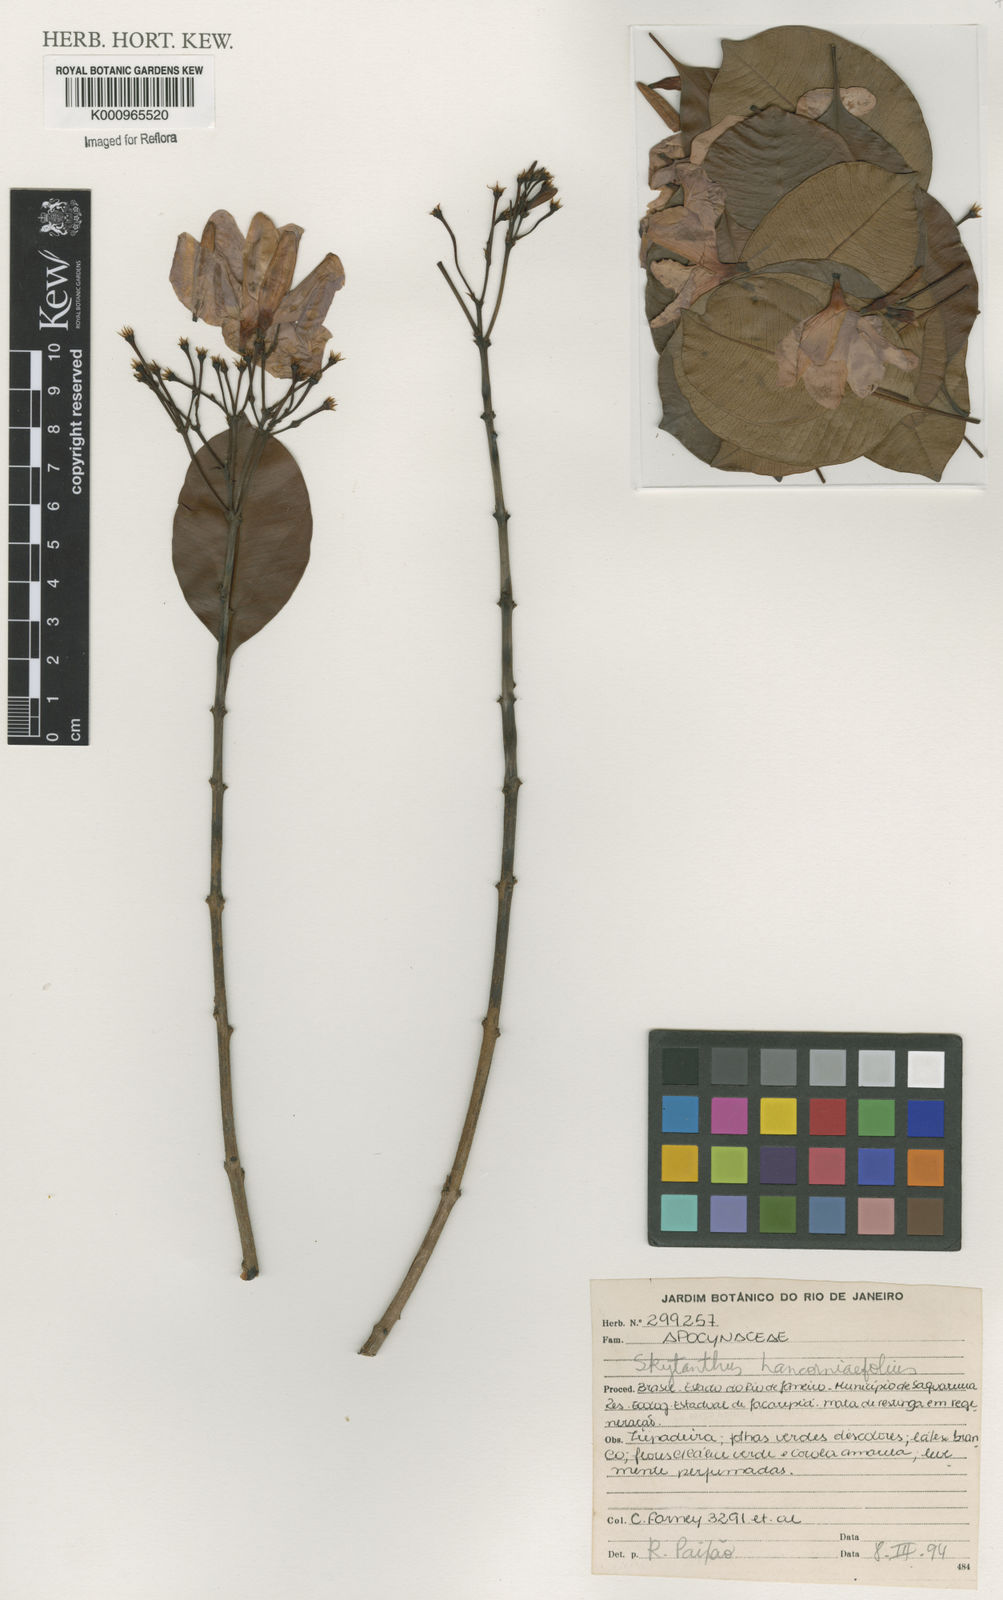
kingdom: Plantae
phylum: Tracheophyta
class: Magnoliopsida
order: Gentianales
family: Apocynaceae
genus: Skytanthus
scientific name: Skytanthus hancorniifolius
